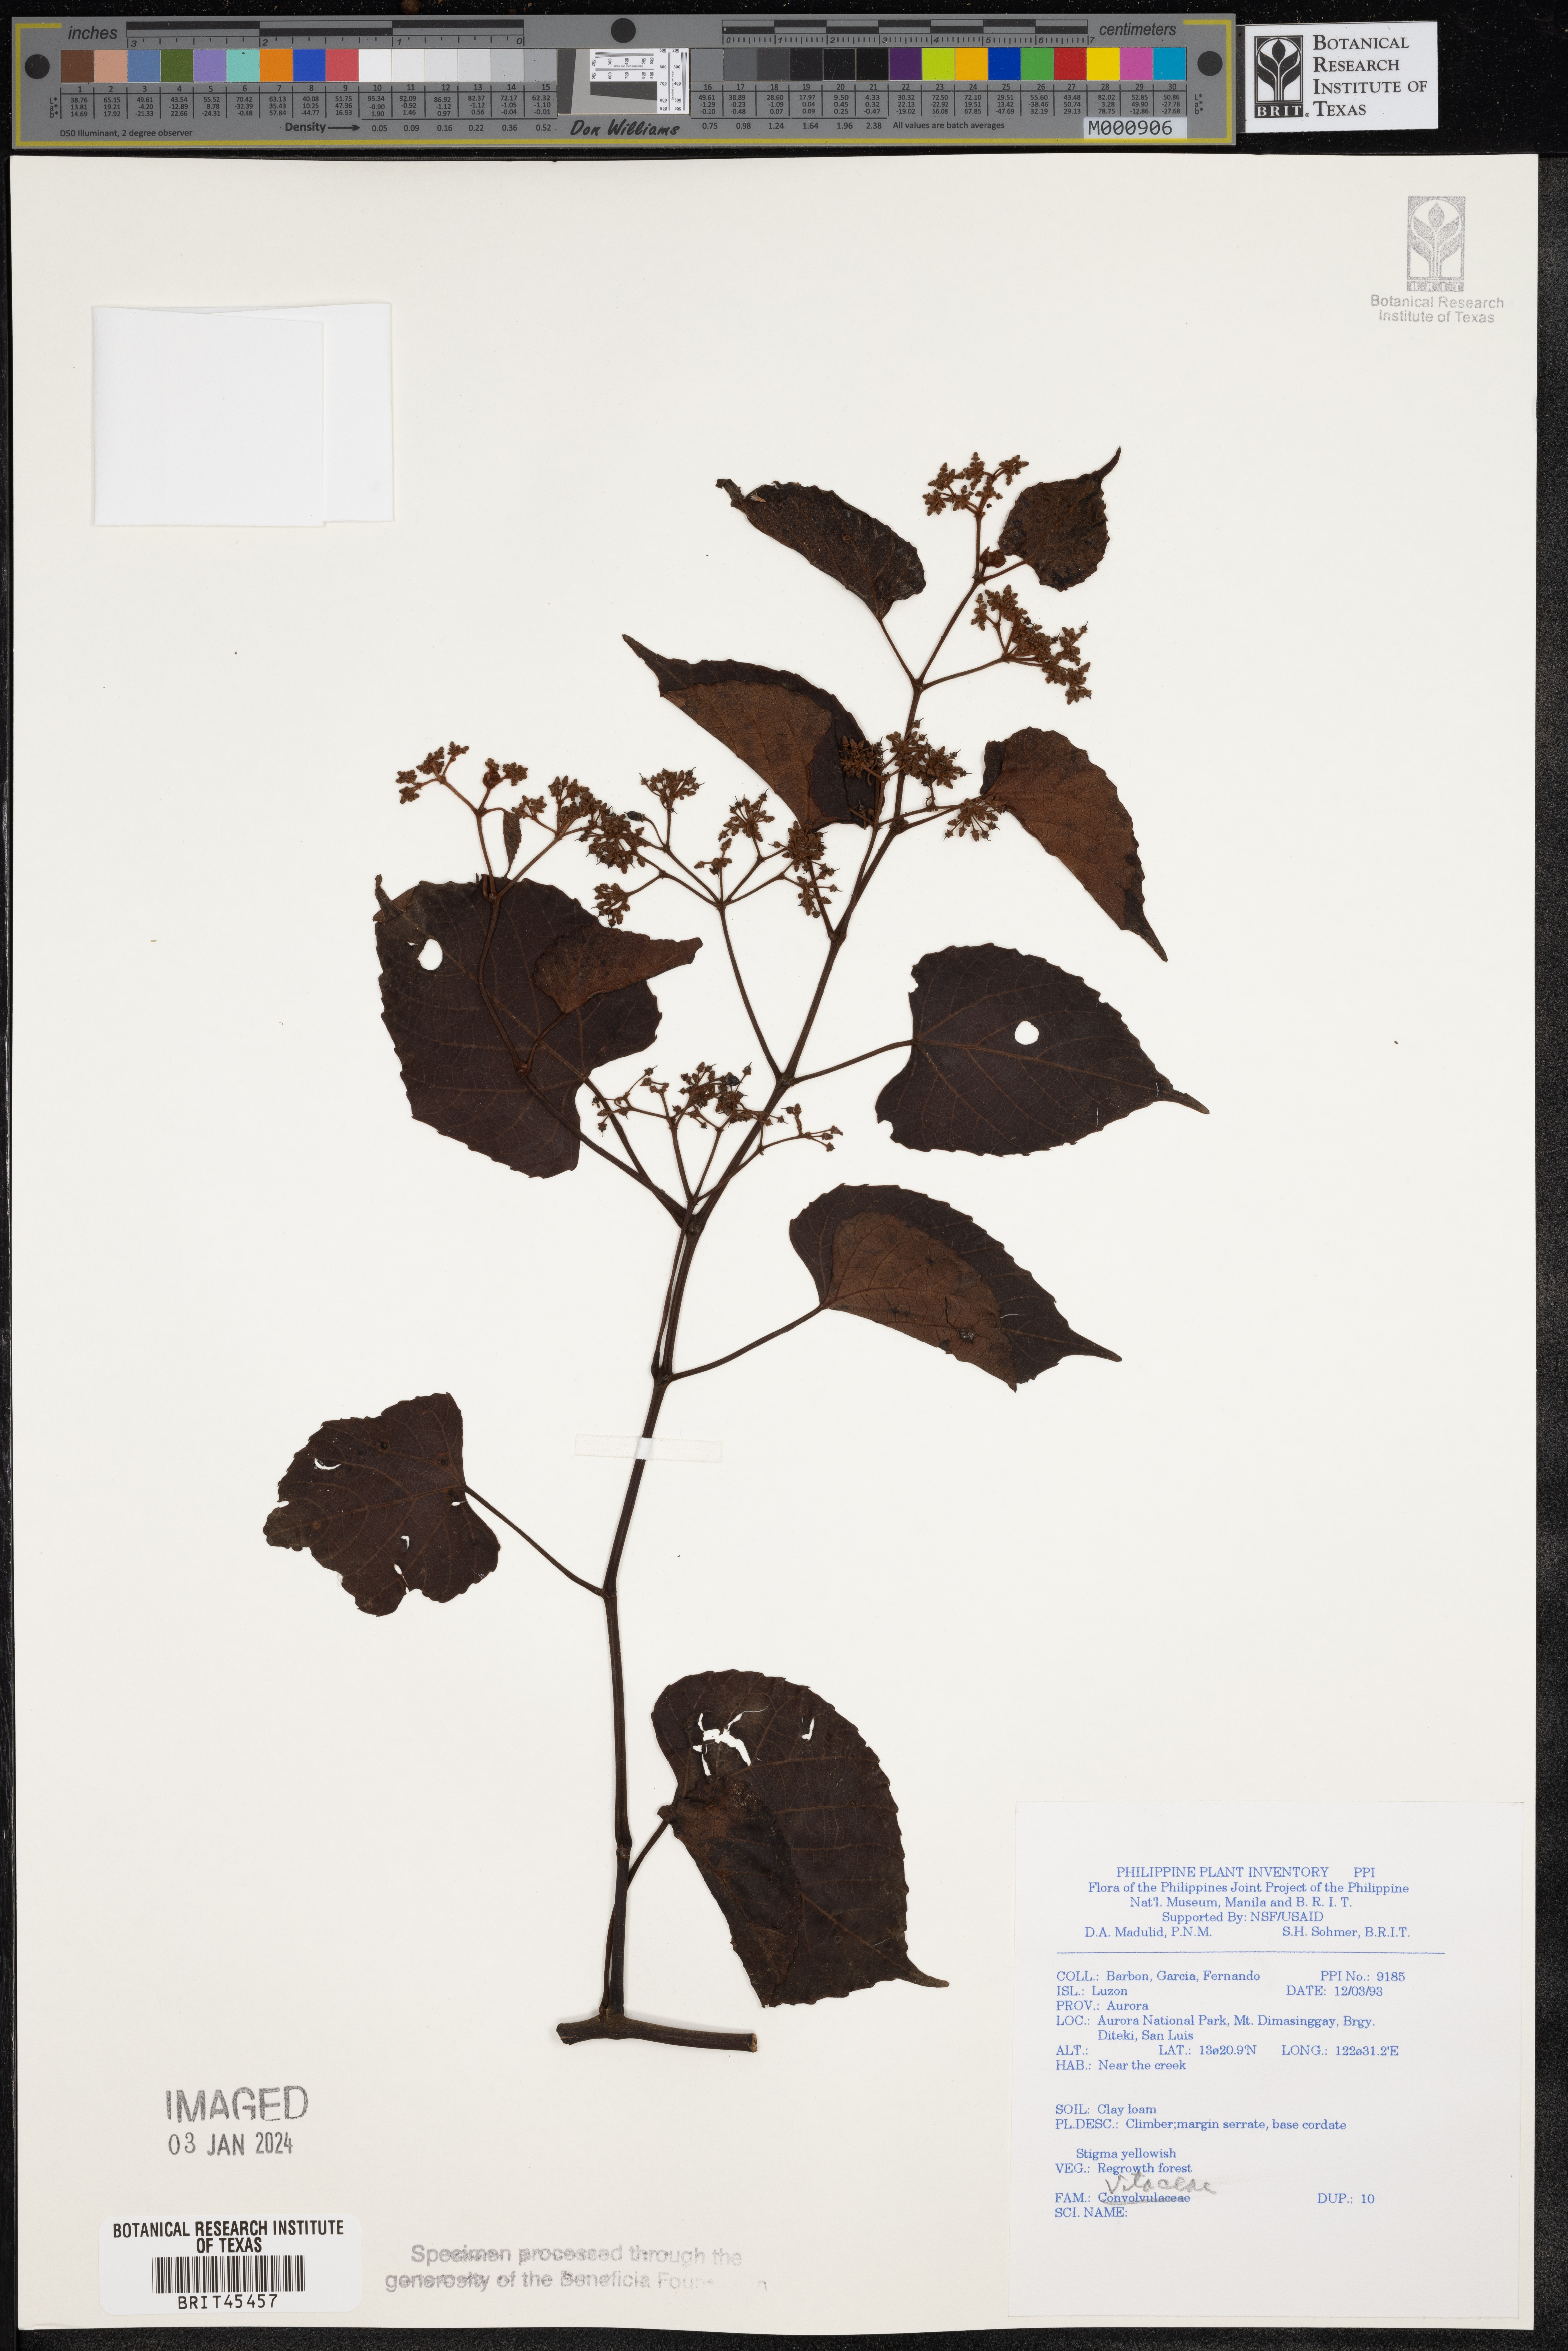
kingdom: Plantae
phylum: Tracheophyta
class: Magnoliopsida
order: Vitales
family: Vitaceae
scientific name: Vitaceae
